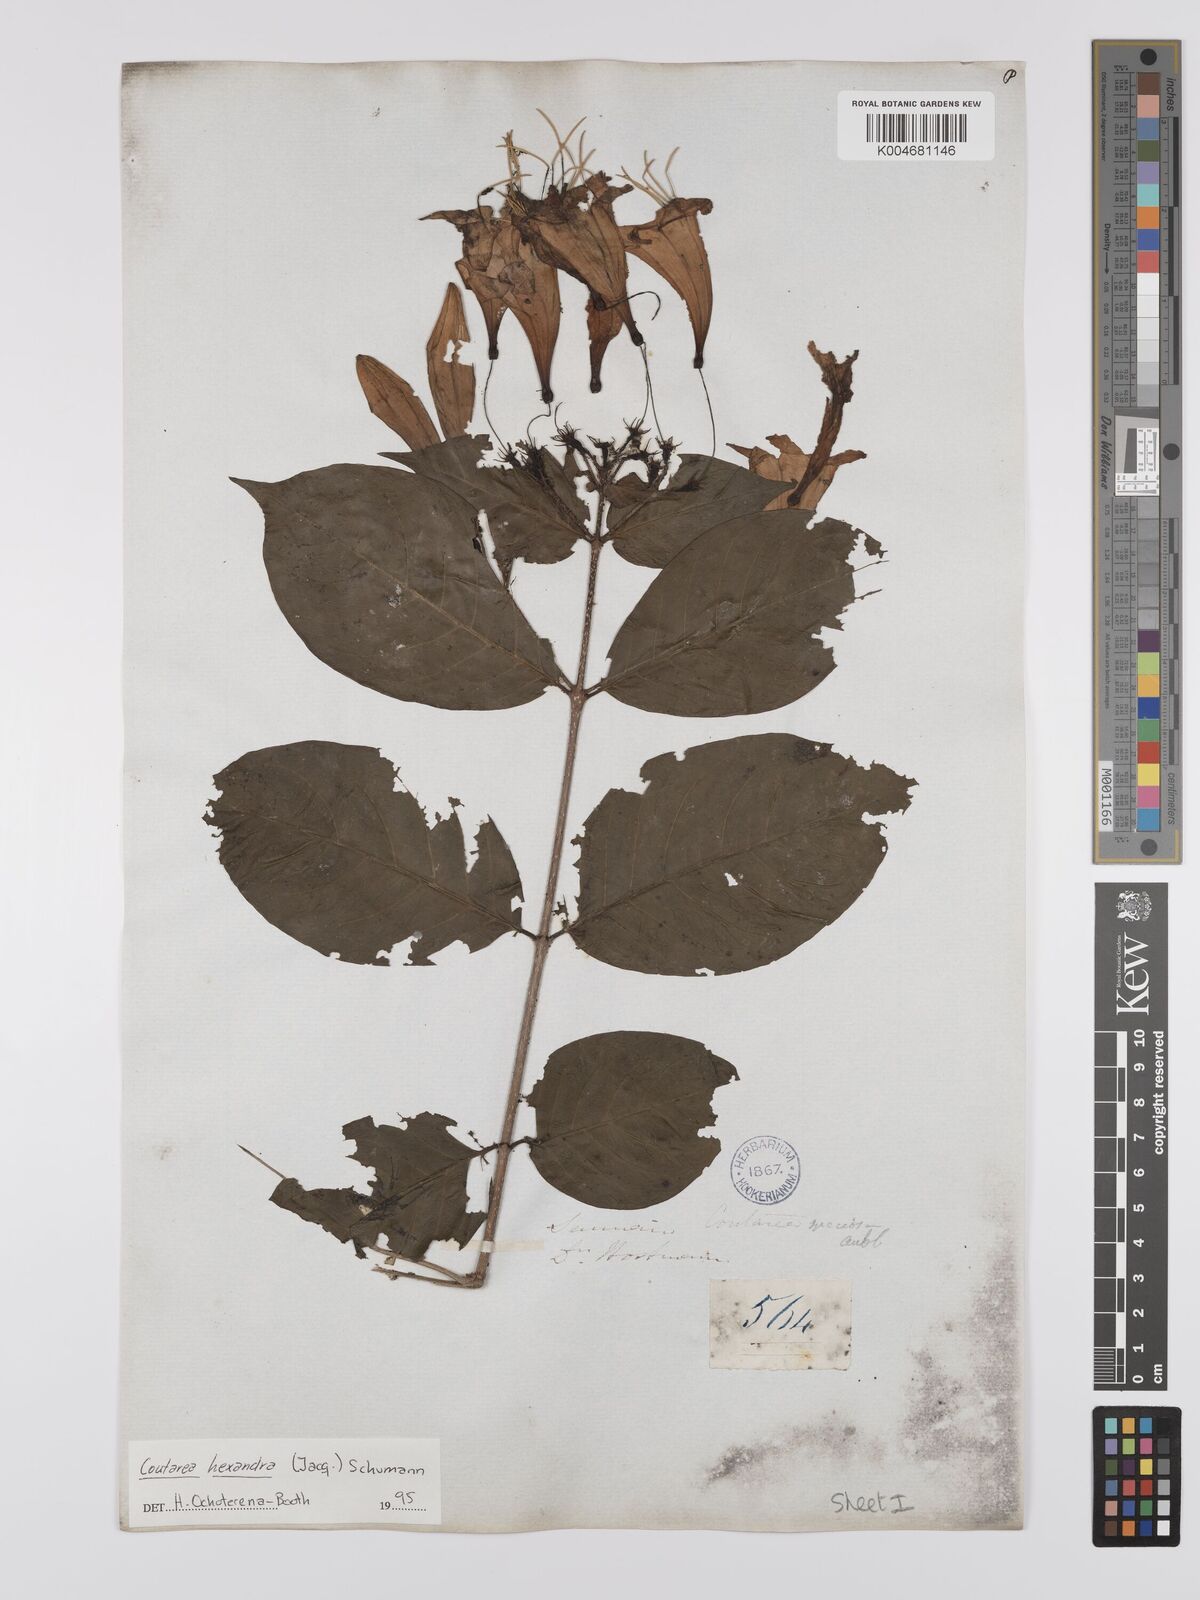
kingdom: Plantae
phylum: Tracheophyta
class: Magnoliopsida
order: Gentianales
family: Rubiaceae
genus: Coutarea
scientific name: Coutarea hexandra
